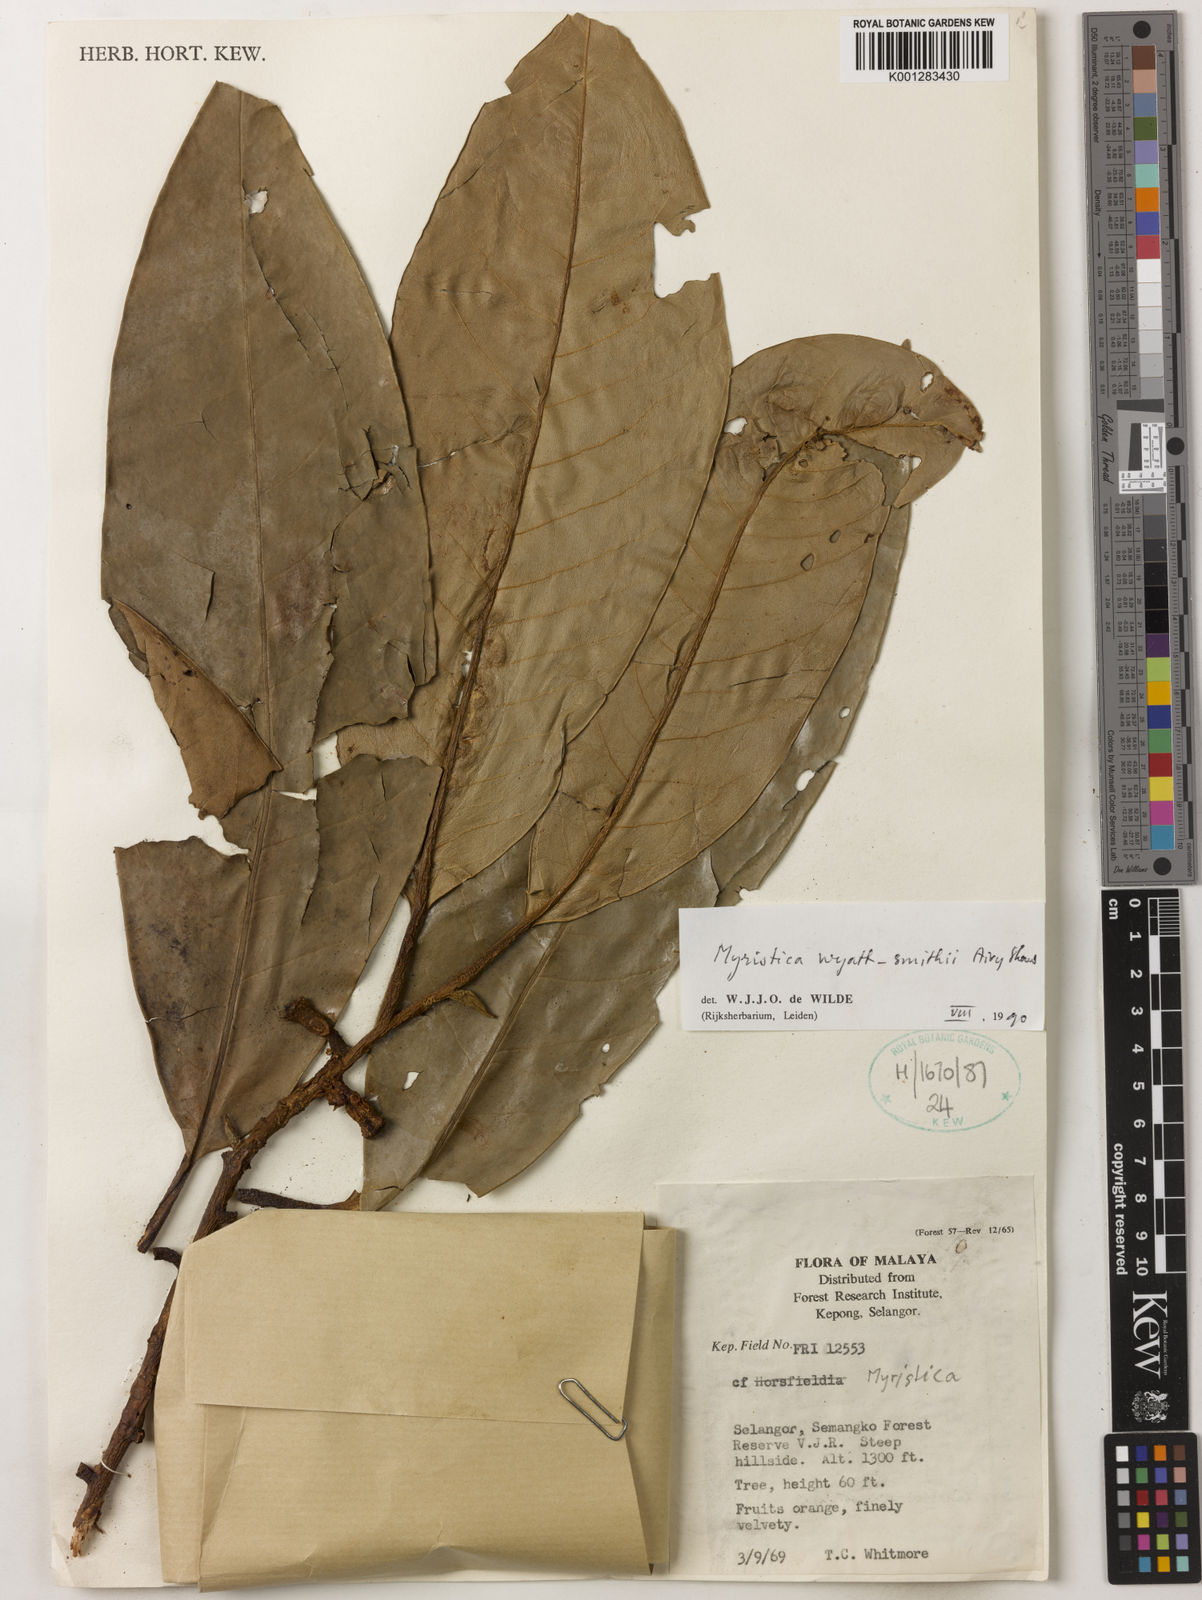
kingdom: Plantae
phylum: Tracheophyta
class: Magnoliopsida
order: Magnoliales
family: Myristicaceae
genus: Myristica
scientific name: Myristica wyatt-smithii
